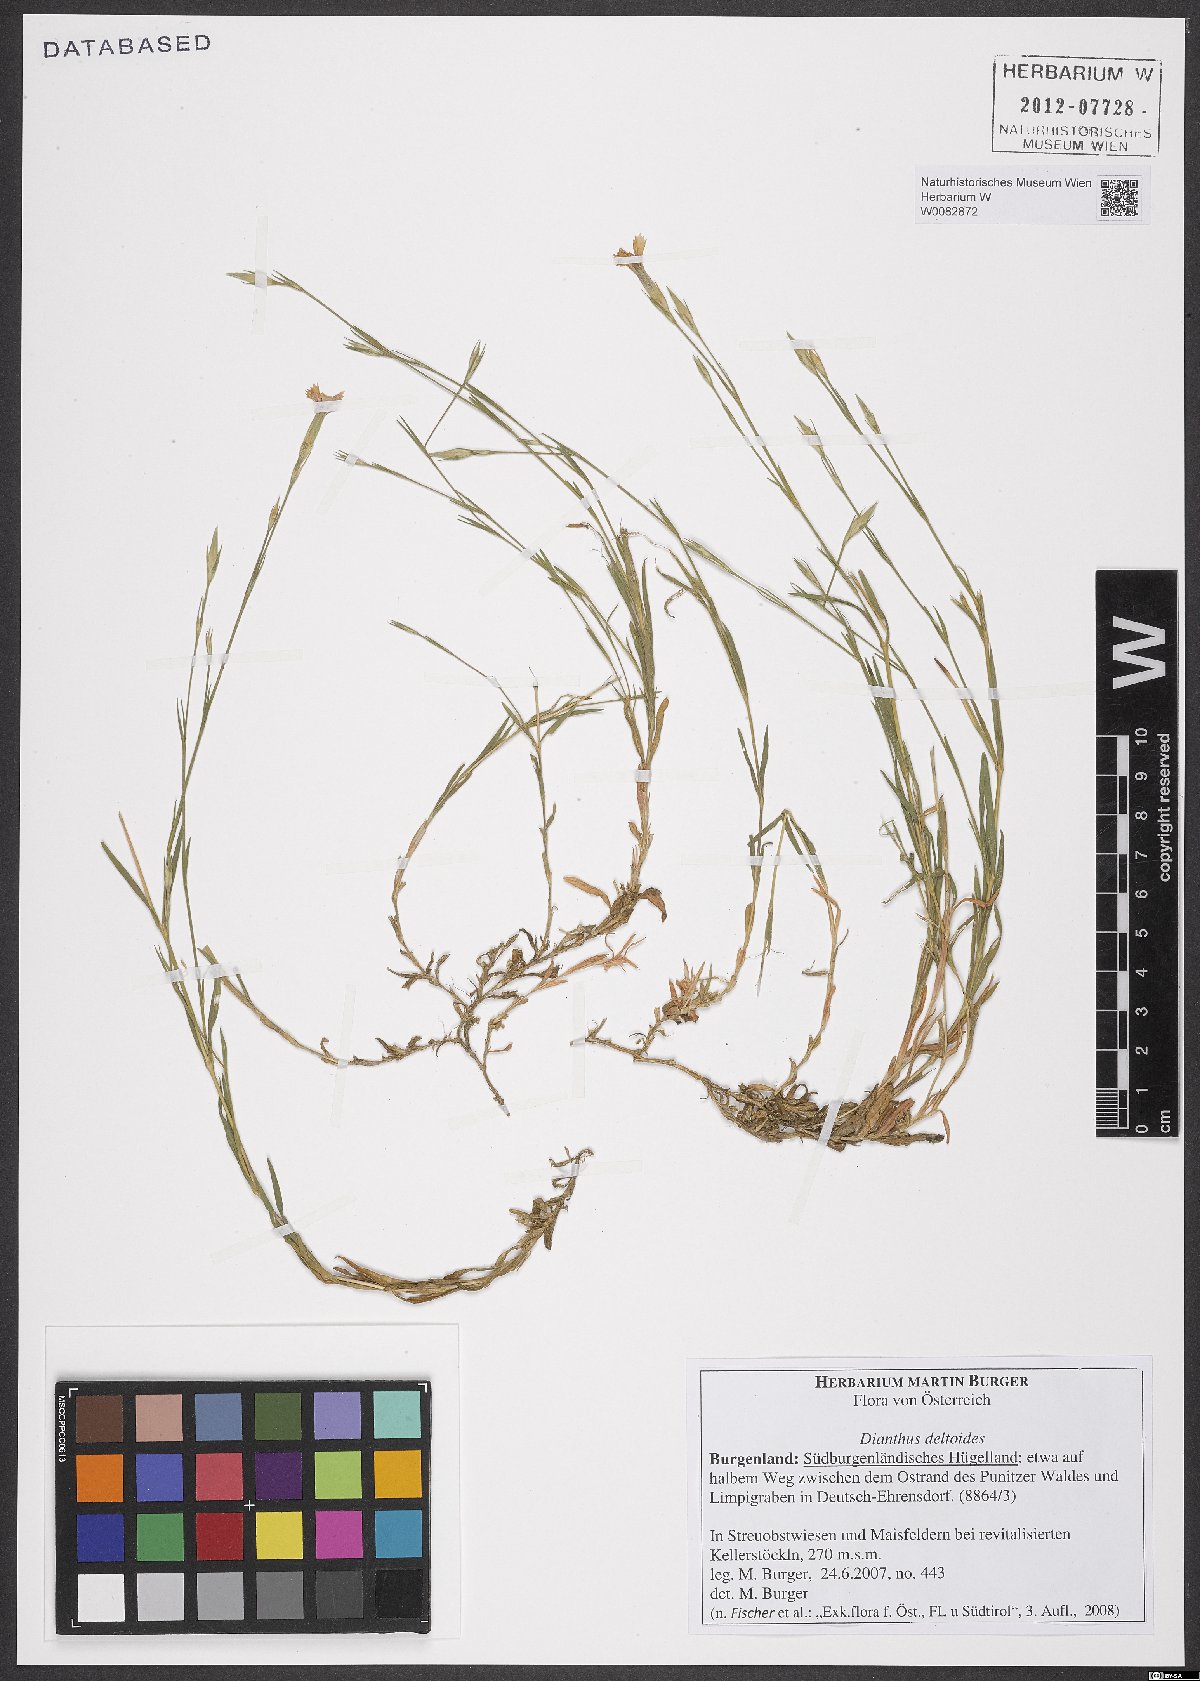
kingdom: Plantae
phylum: Tracheophyta
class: Magnoliopsida
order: Caryophyllales
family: Caryophyllaceae
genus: Dianthus
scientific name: Dianthus deltoides
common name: Maiden pink
